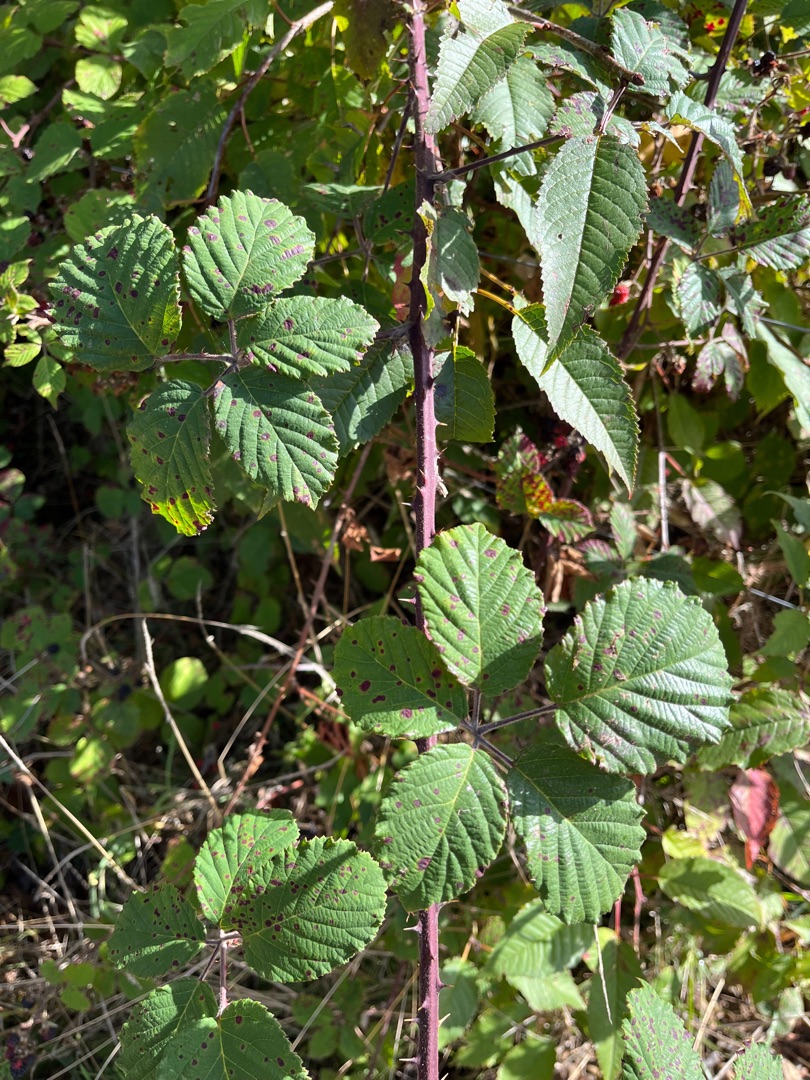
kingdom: Plantae
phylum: Tracheophyta
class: Magnoliopsida
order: Rosales
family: Rosaceae
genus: Rubus
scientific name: Rubus armeniacus
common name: Armensk brombær
